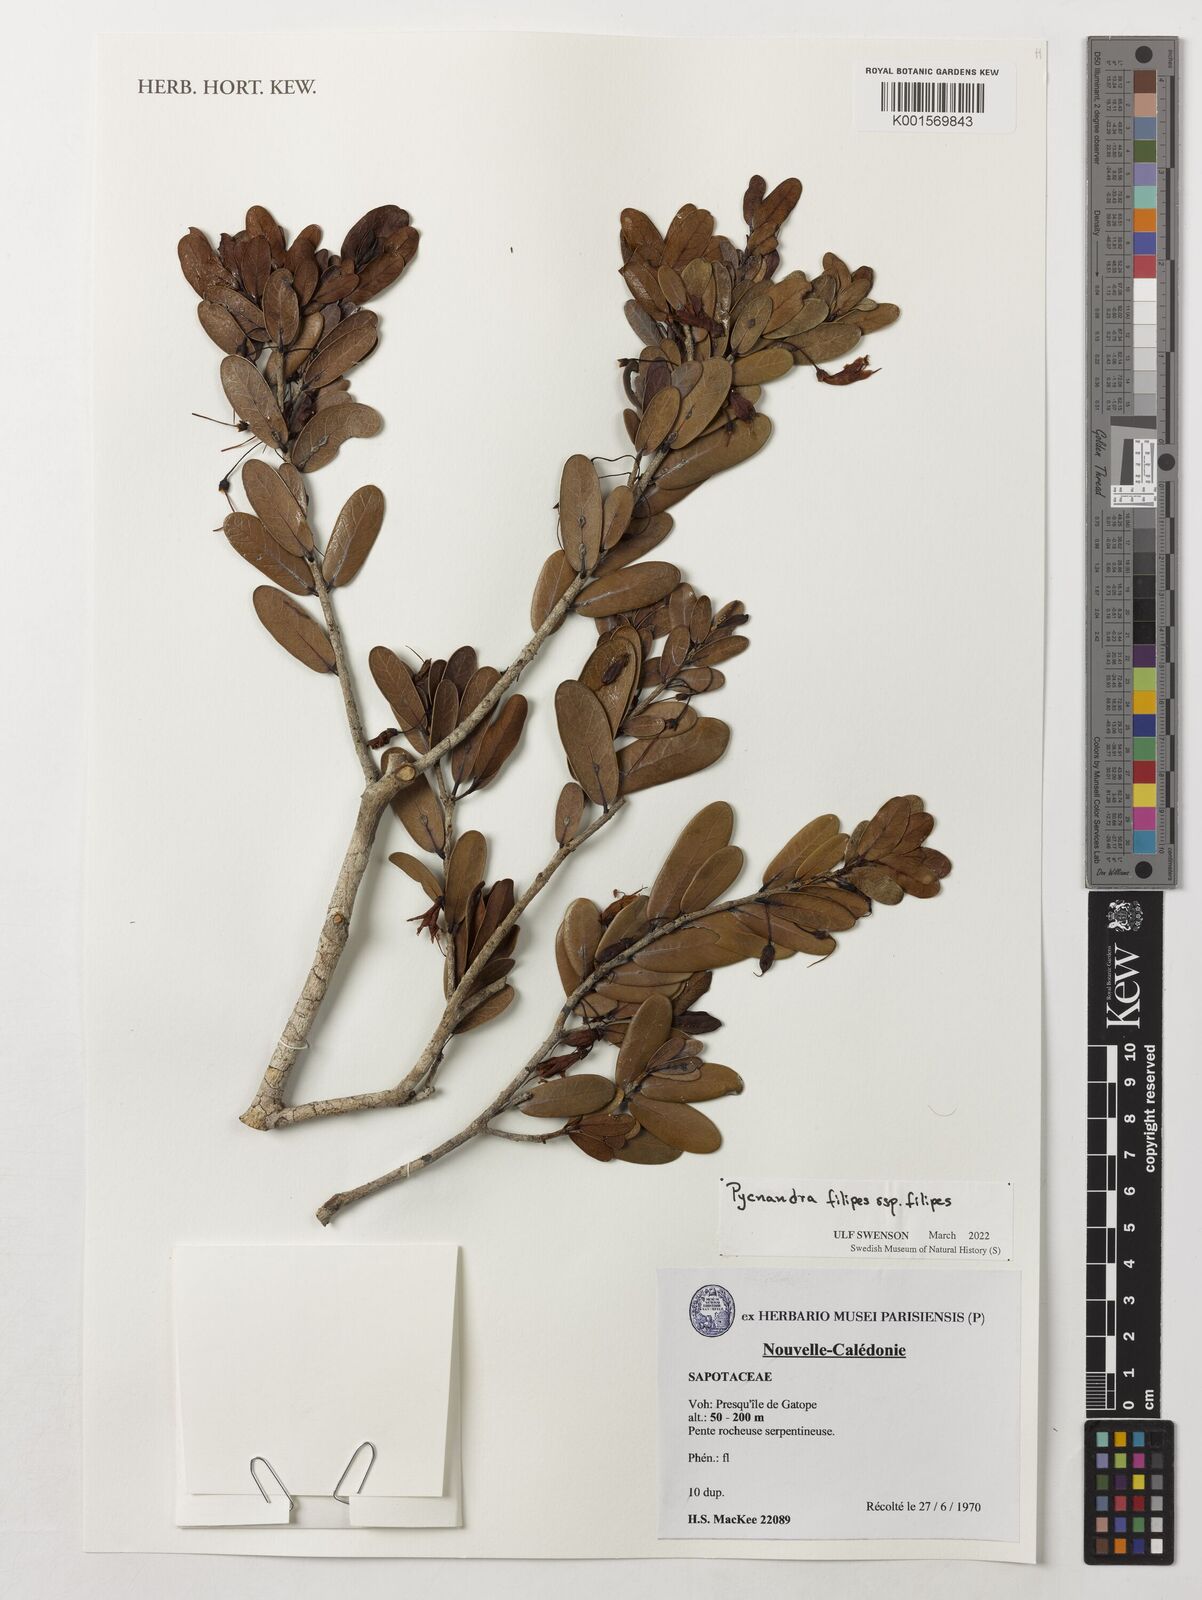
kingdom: Plantae
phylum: Tracheophyta
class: Magnoliopsida
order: Ericales
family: Sapotaceae
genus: Pycnandra
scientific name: Pycnandra filipes
